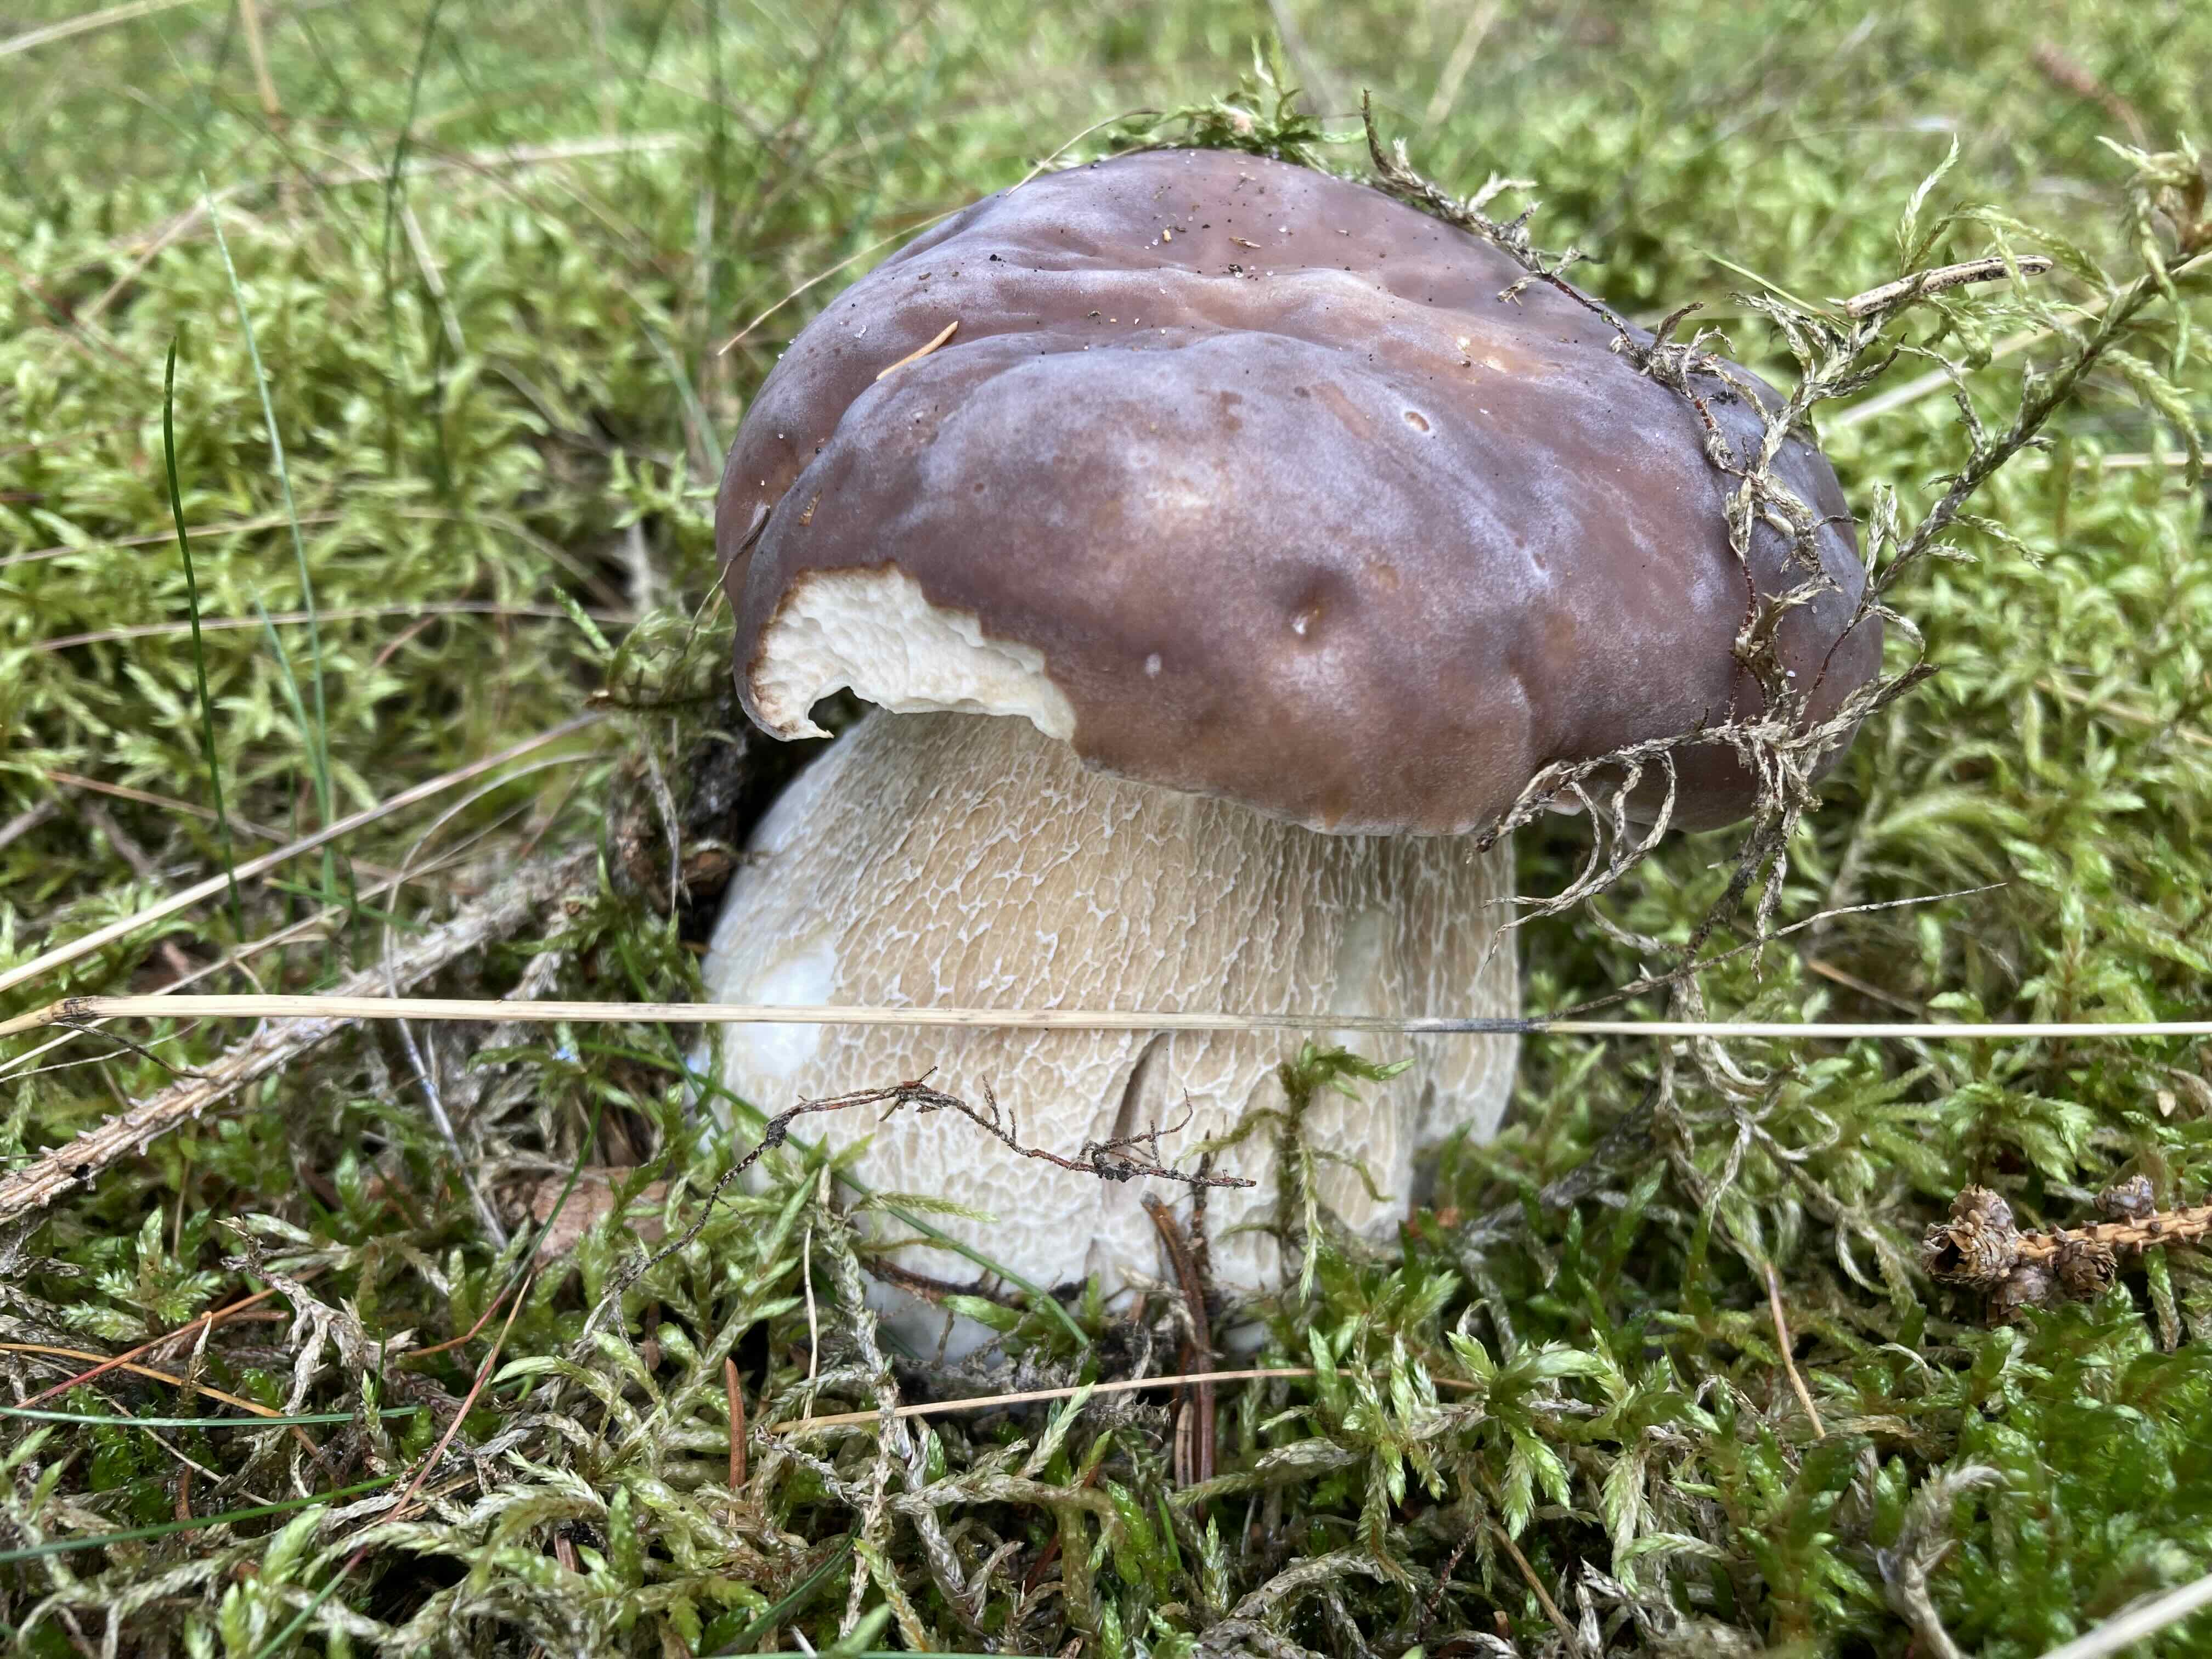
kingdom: Fungi
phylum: Basidiomycota
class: Agaricomycetes
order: Boletales
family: Boletaceae
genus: Boletus
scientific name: Boletus edulis
